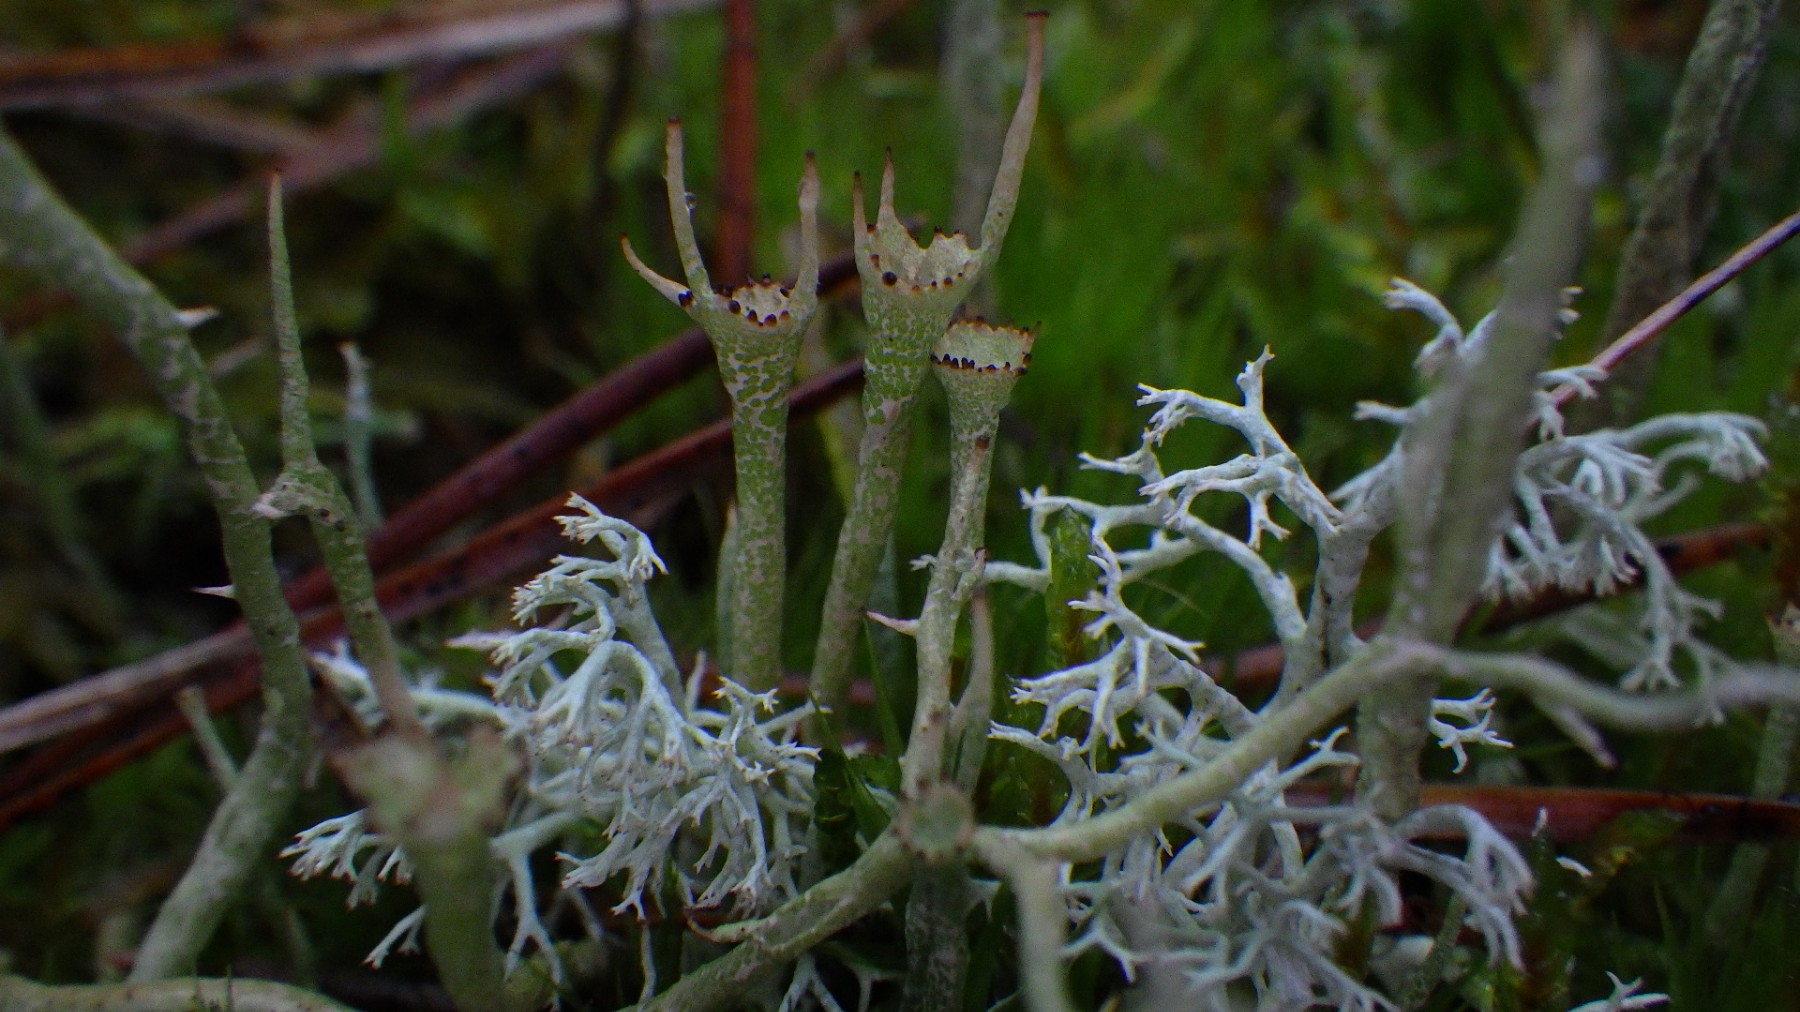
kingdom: Fungi
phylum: Ascomycota
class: Lecanoromycetes
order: Lecanorales
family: Cladoniaceae
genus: Cladonia
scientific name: Cladonia gracilis
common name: slank bægerlav
